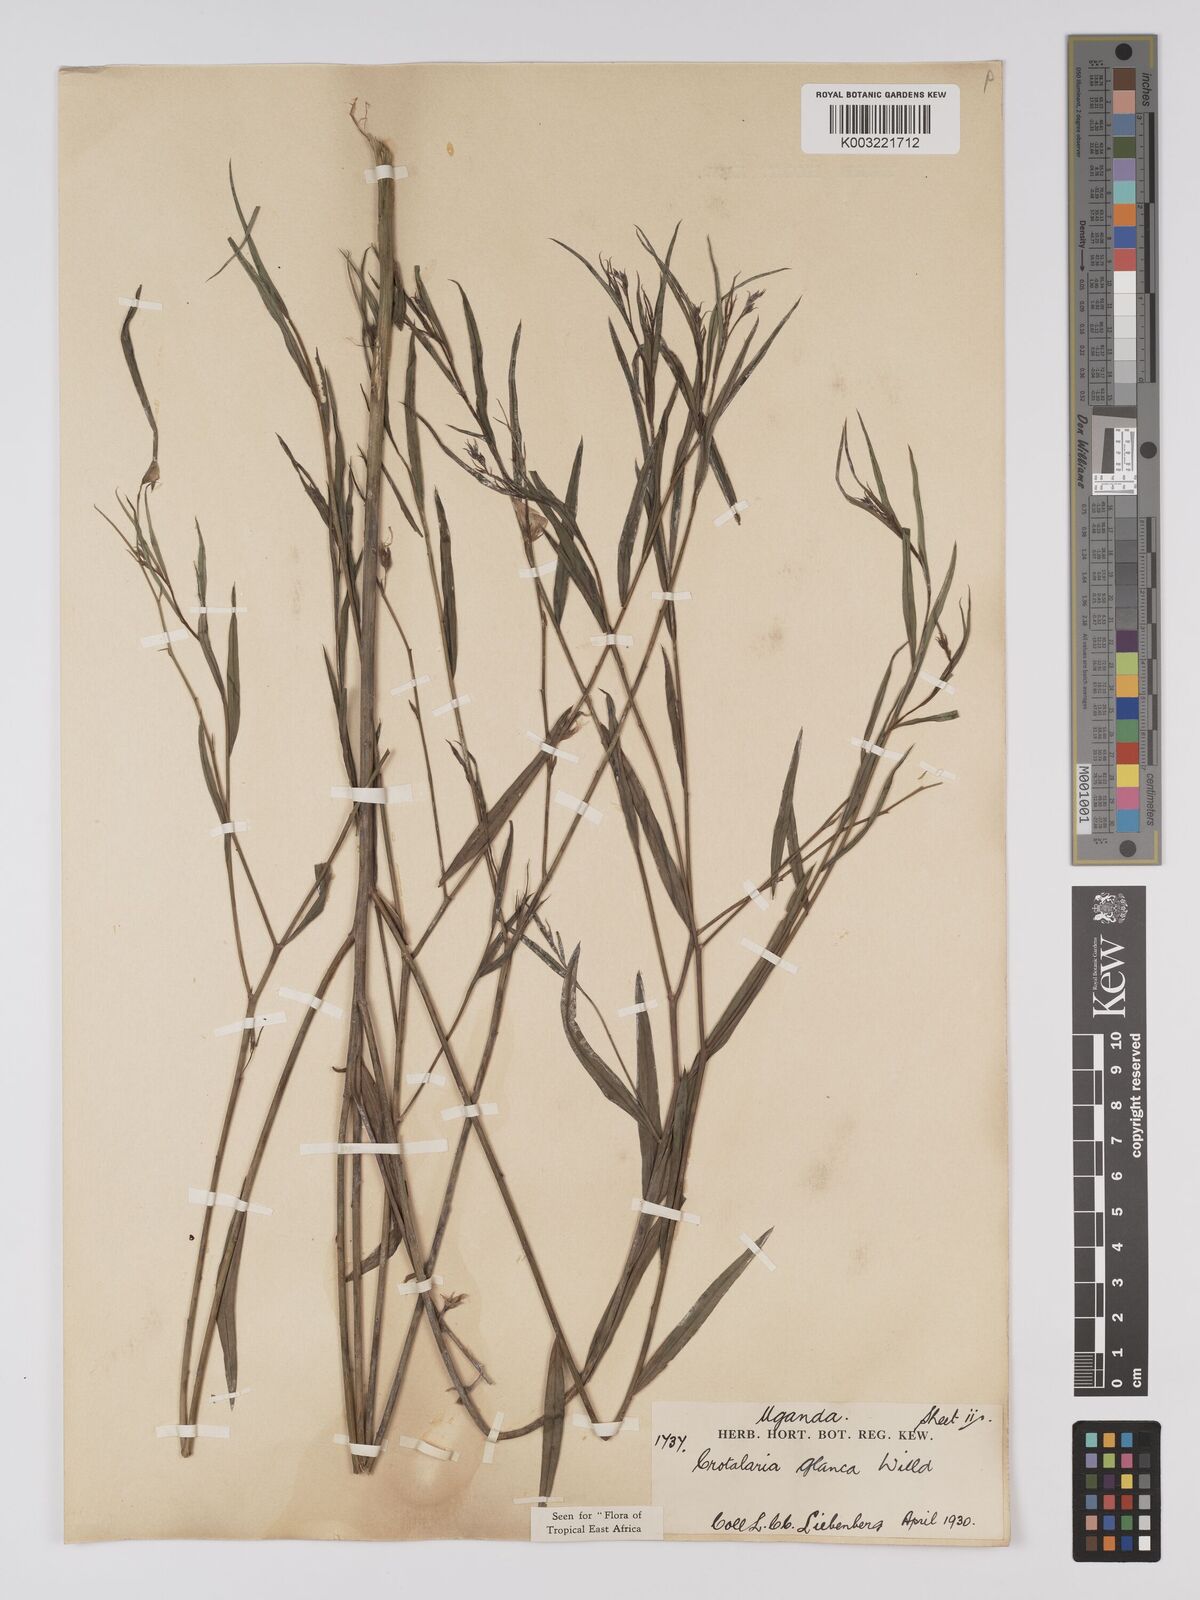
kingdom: Plantae
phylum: Tracheophyta
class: Magnoliopsida
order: Fabales
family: Fabaceae
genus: Crotalaria
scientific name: Crotalaria glauca
